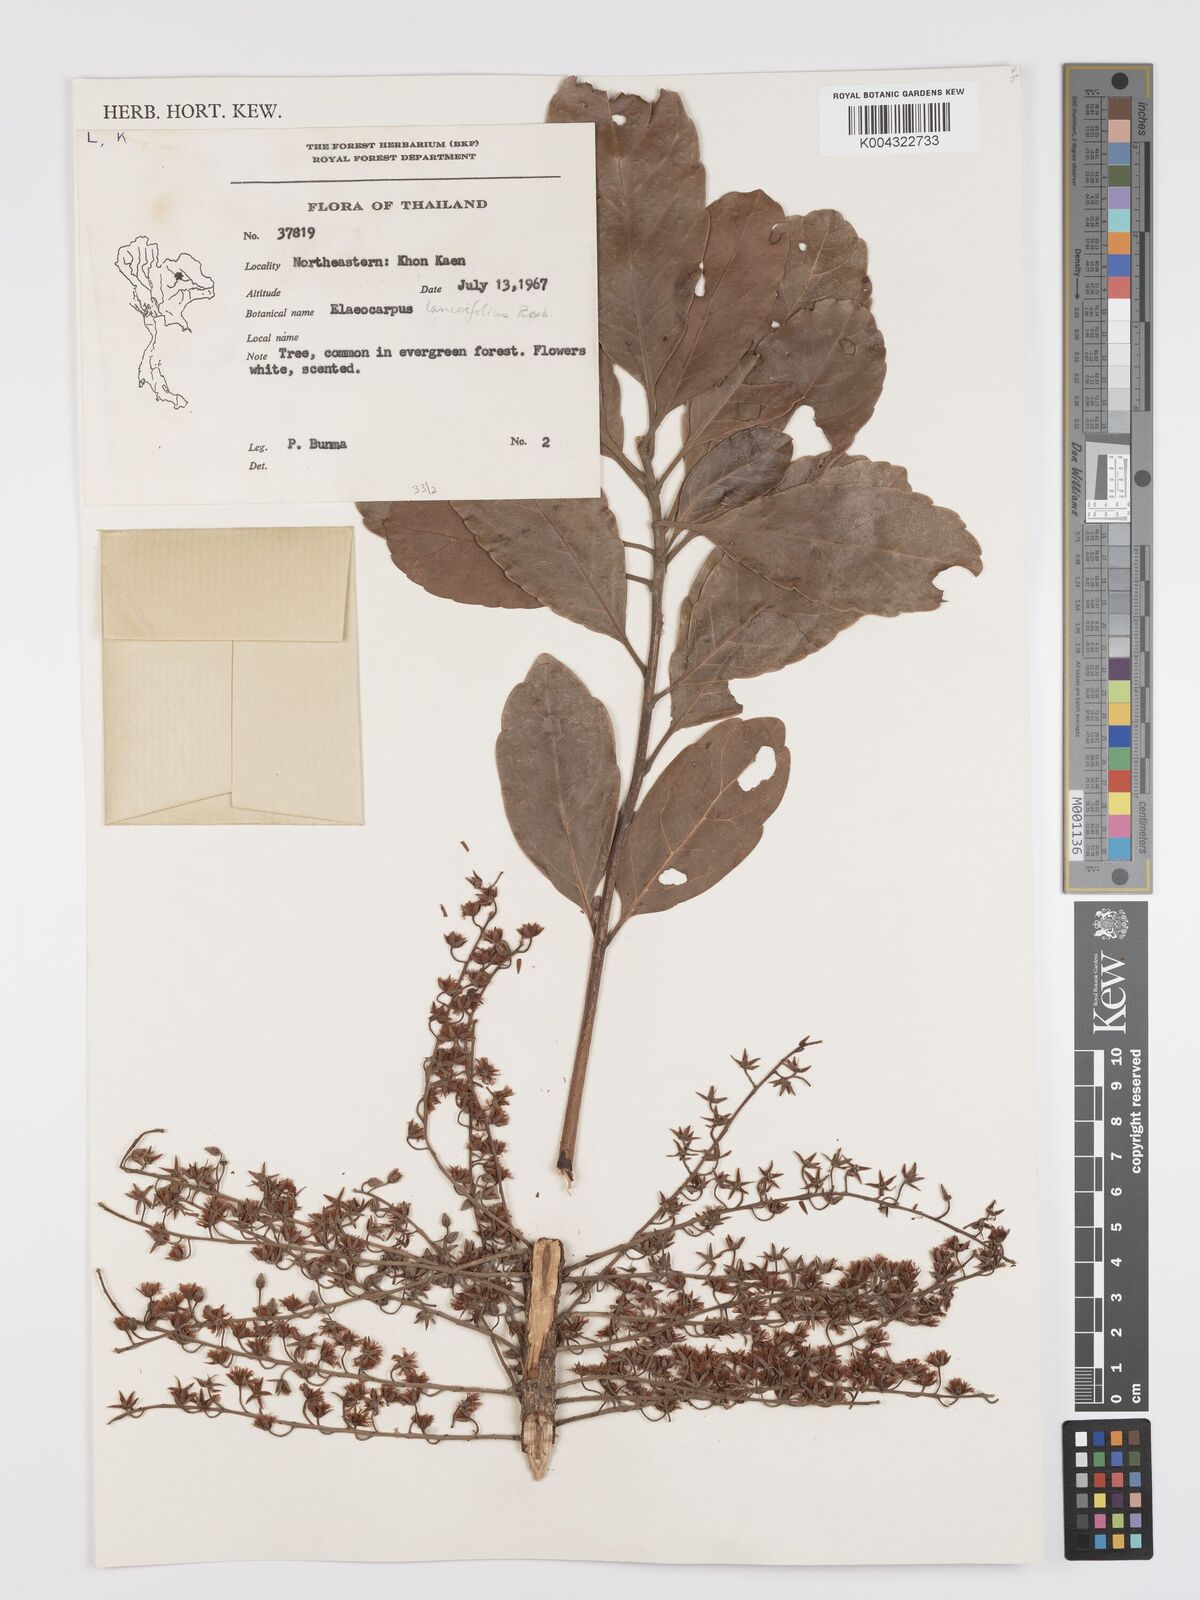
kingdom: Plantae
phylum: Tracheophyta
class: Magnoliopsida
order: Oxalidales
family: Elaeocarpaceae
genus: Elaeocarpus
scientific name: Elaeocarpus lanceifolius
